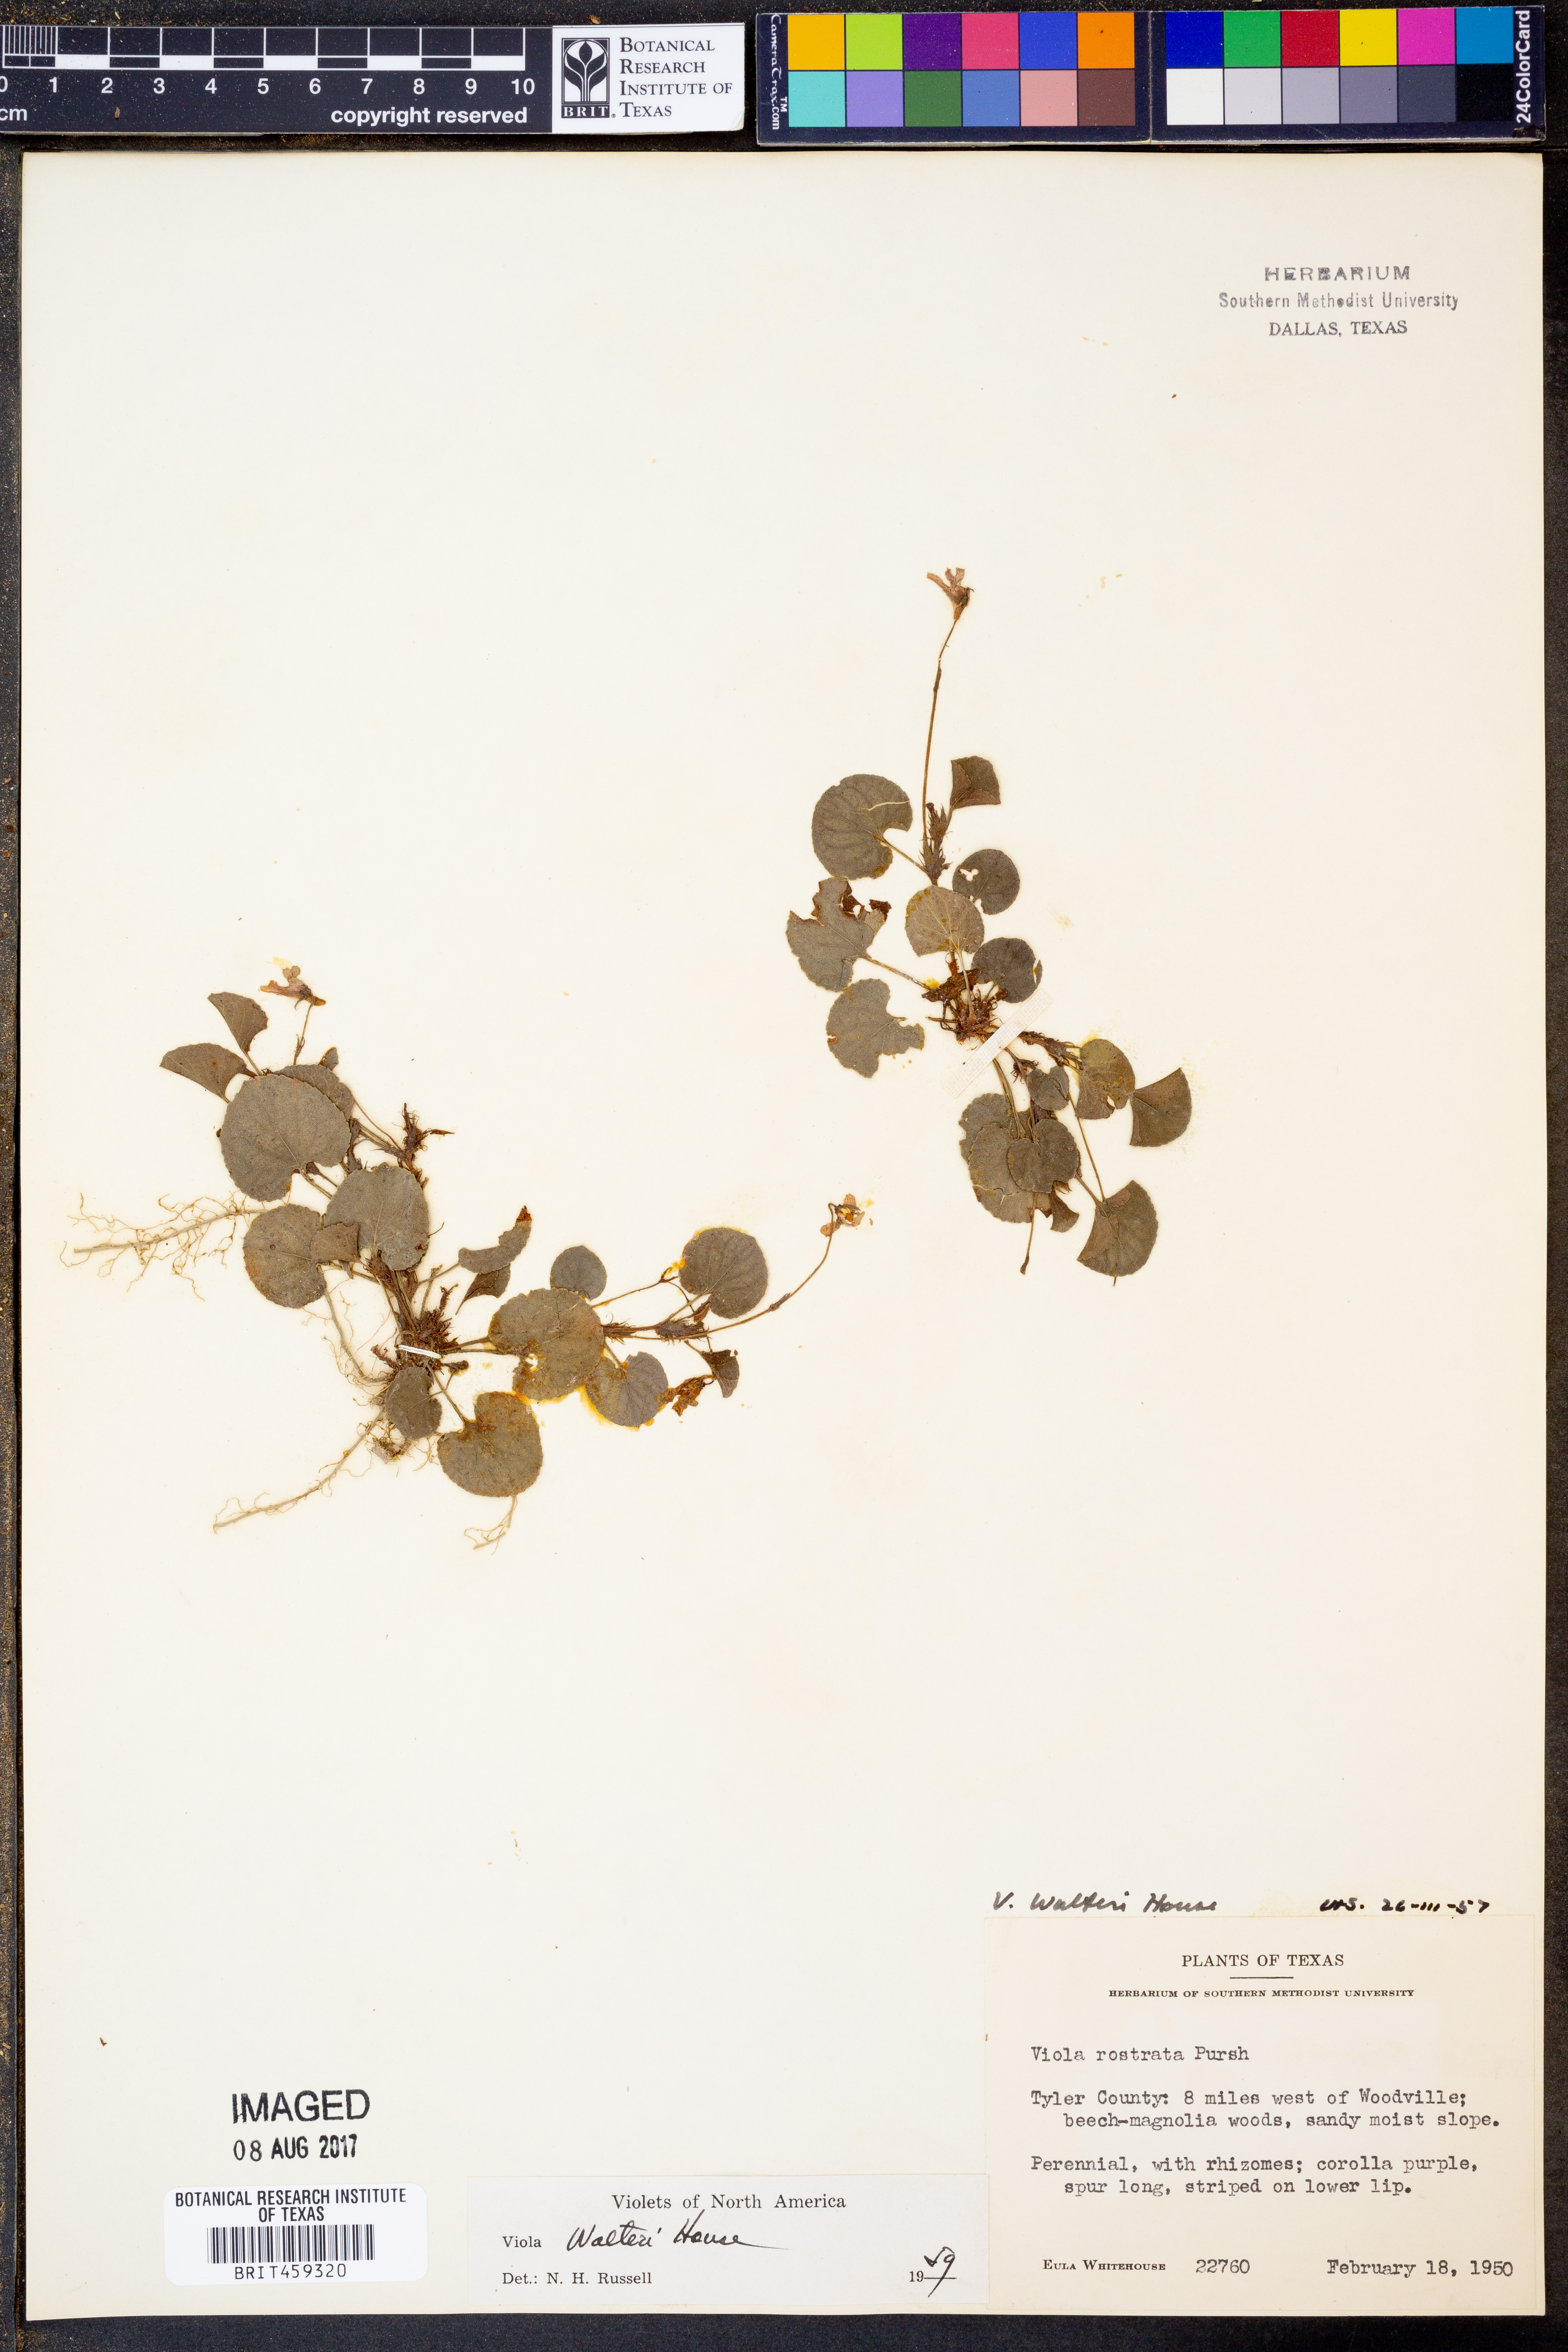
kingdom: Plantae
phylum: Tracheophyta
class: Magnoliopsida
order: Malpighiales
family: Violaceae
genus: Viola
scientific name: Viola walteri
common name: Prostrate southern violet
